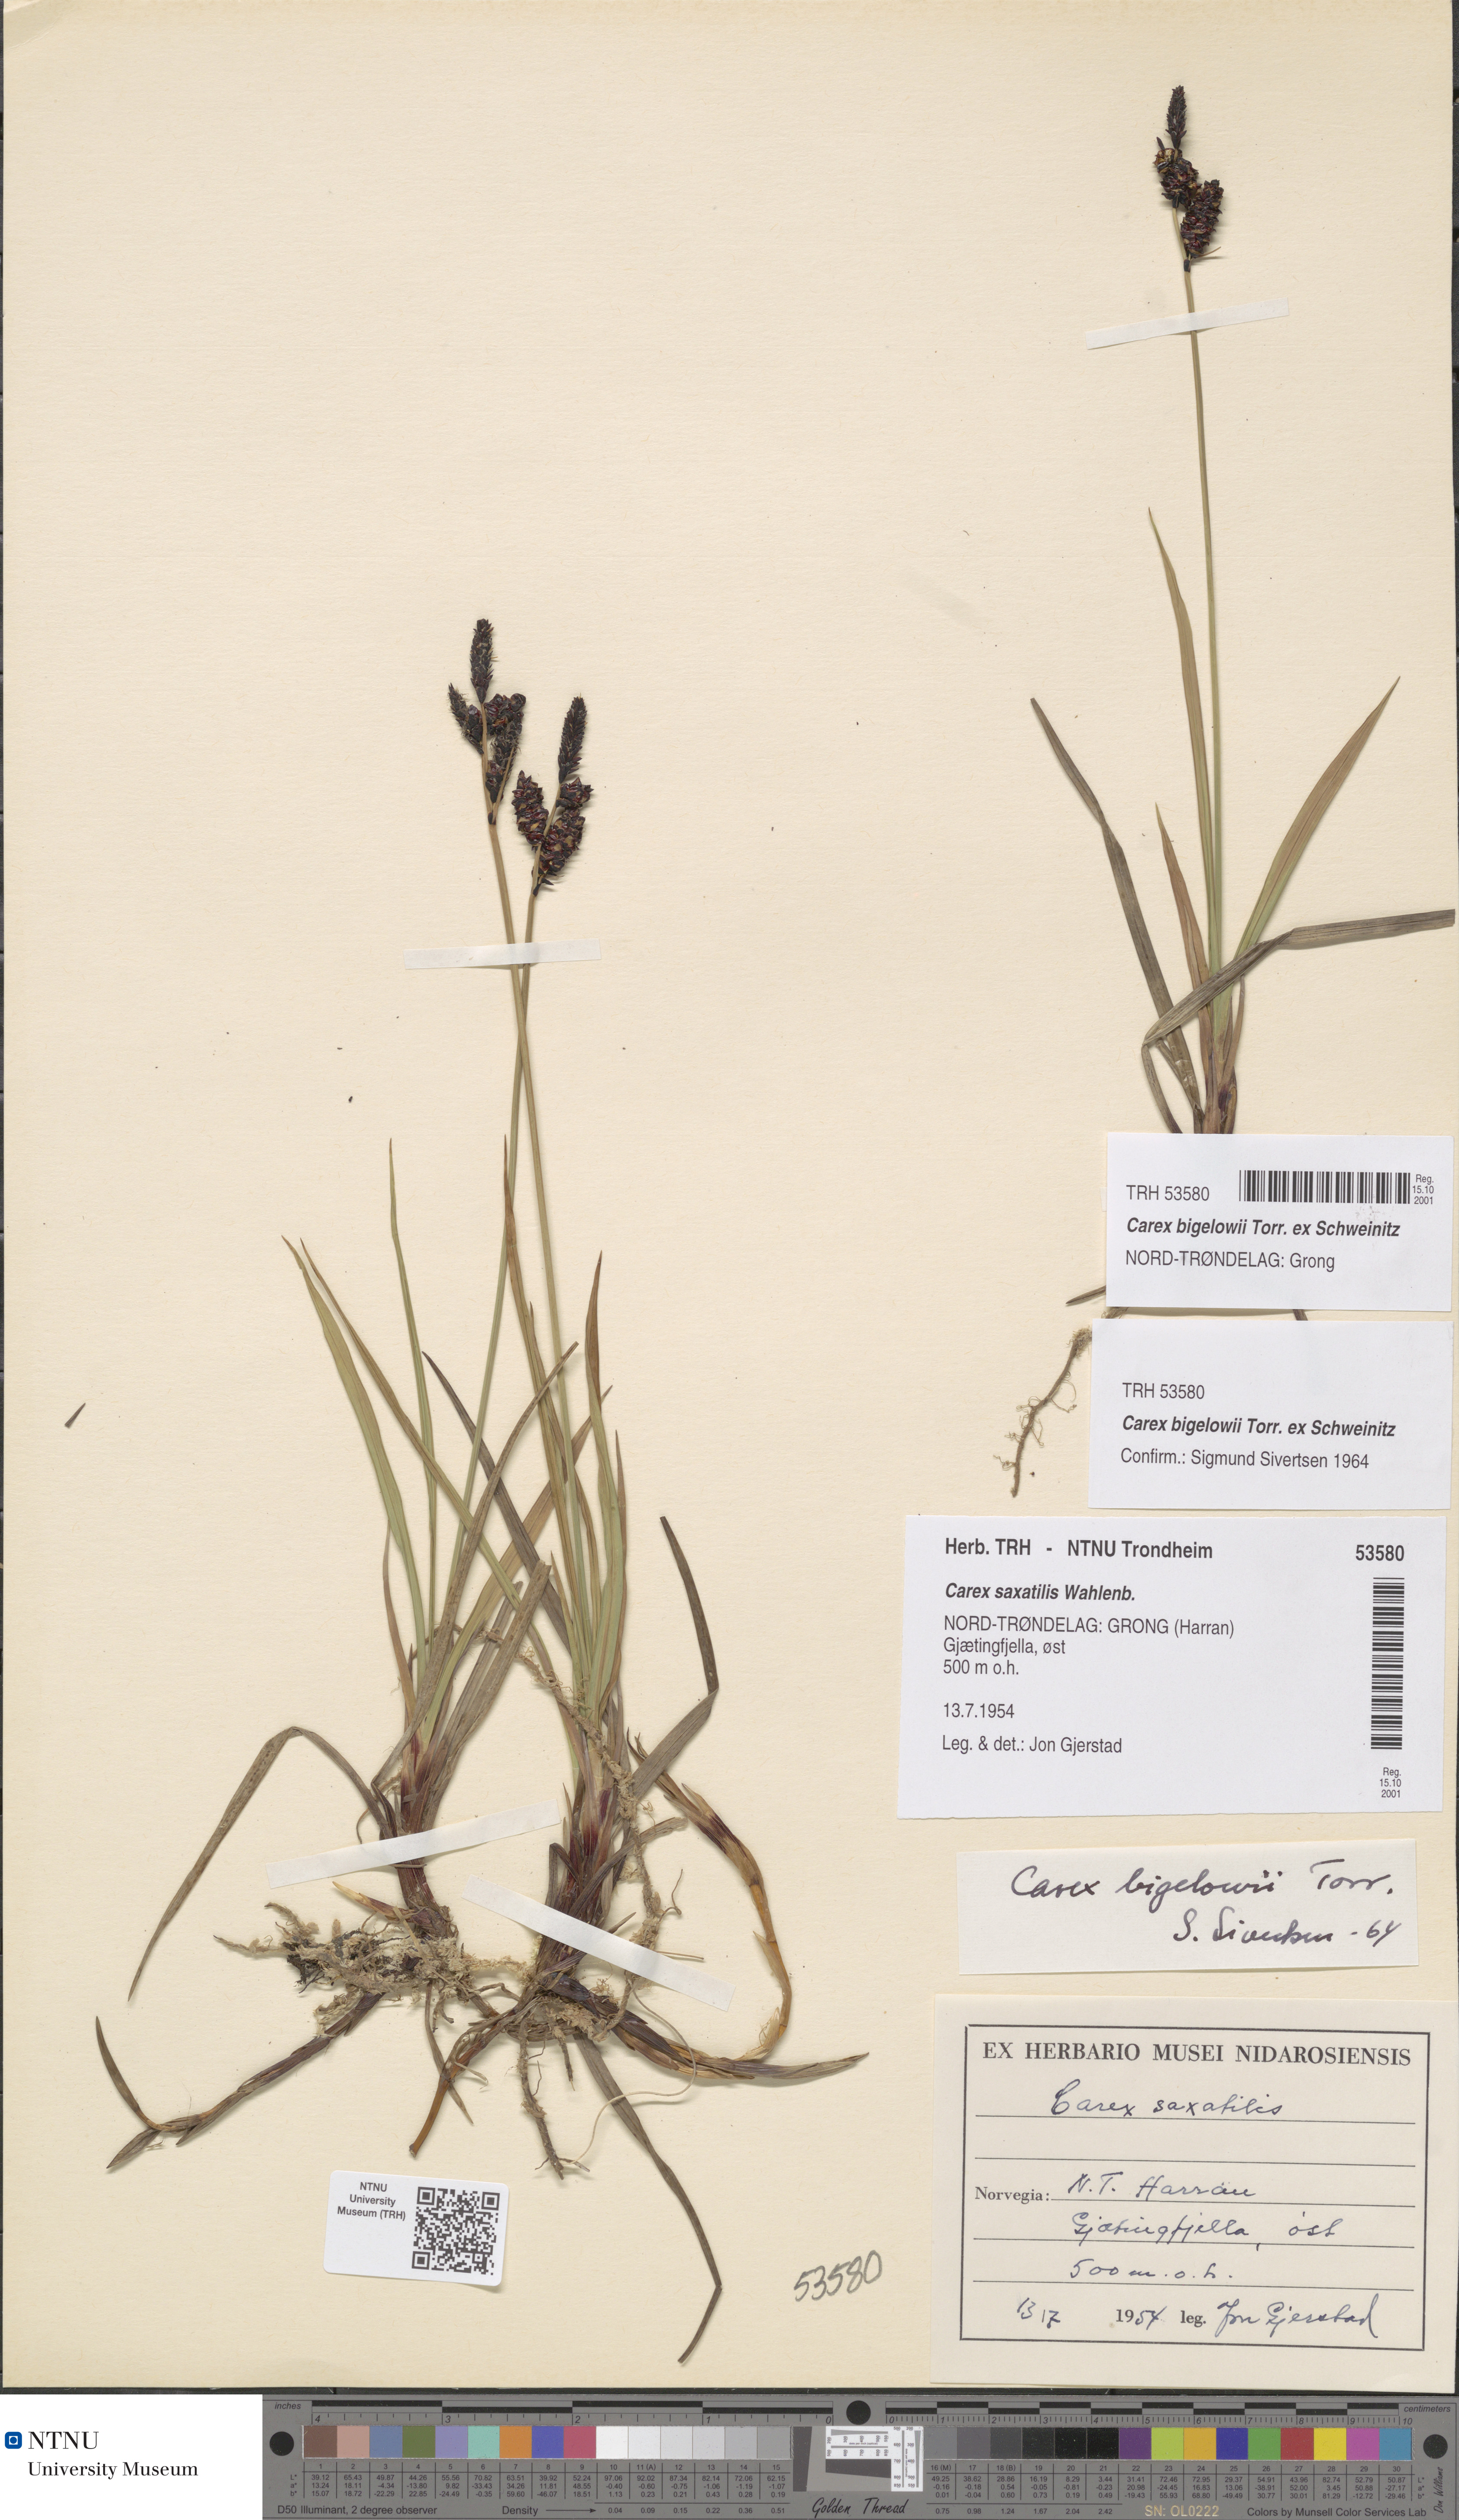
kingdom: Plantae
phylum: Tracheophyta
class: Liliopsida
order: Poales
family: Cyperaceae
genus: Carex
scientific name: Carex bigelowii
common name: Stiff sedge
